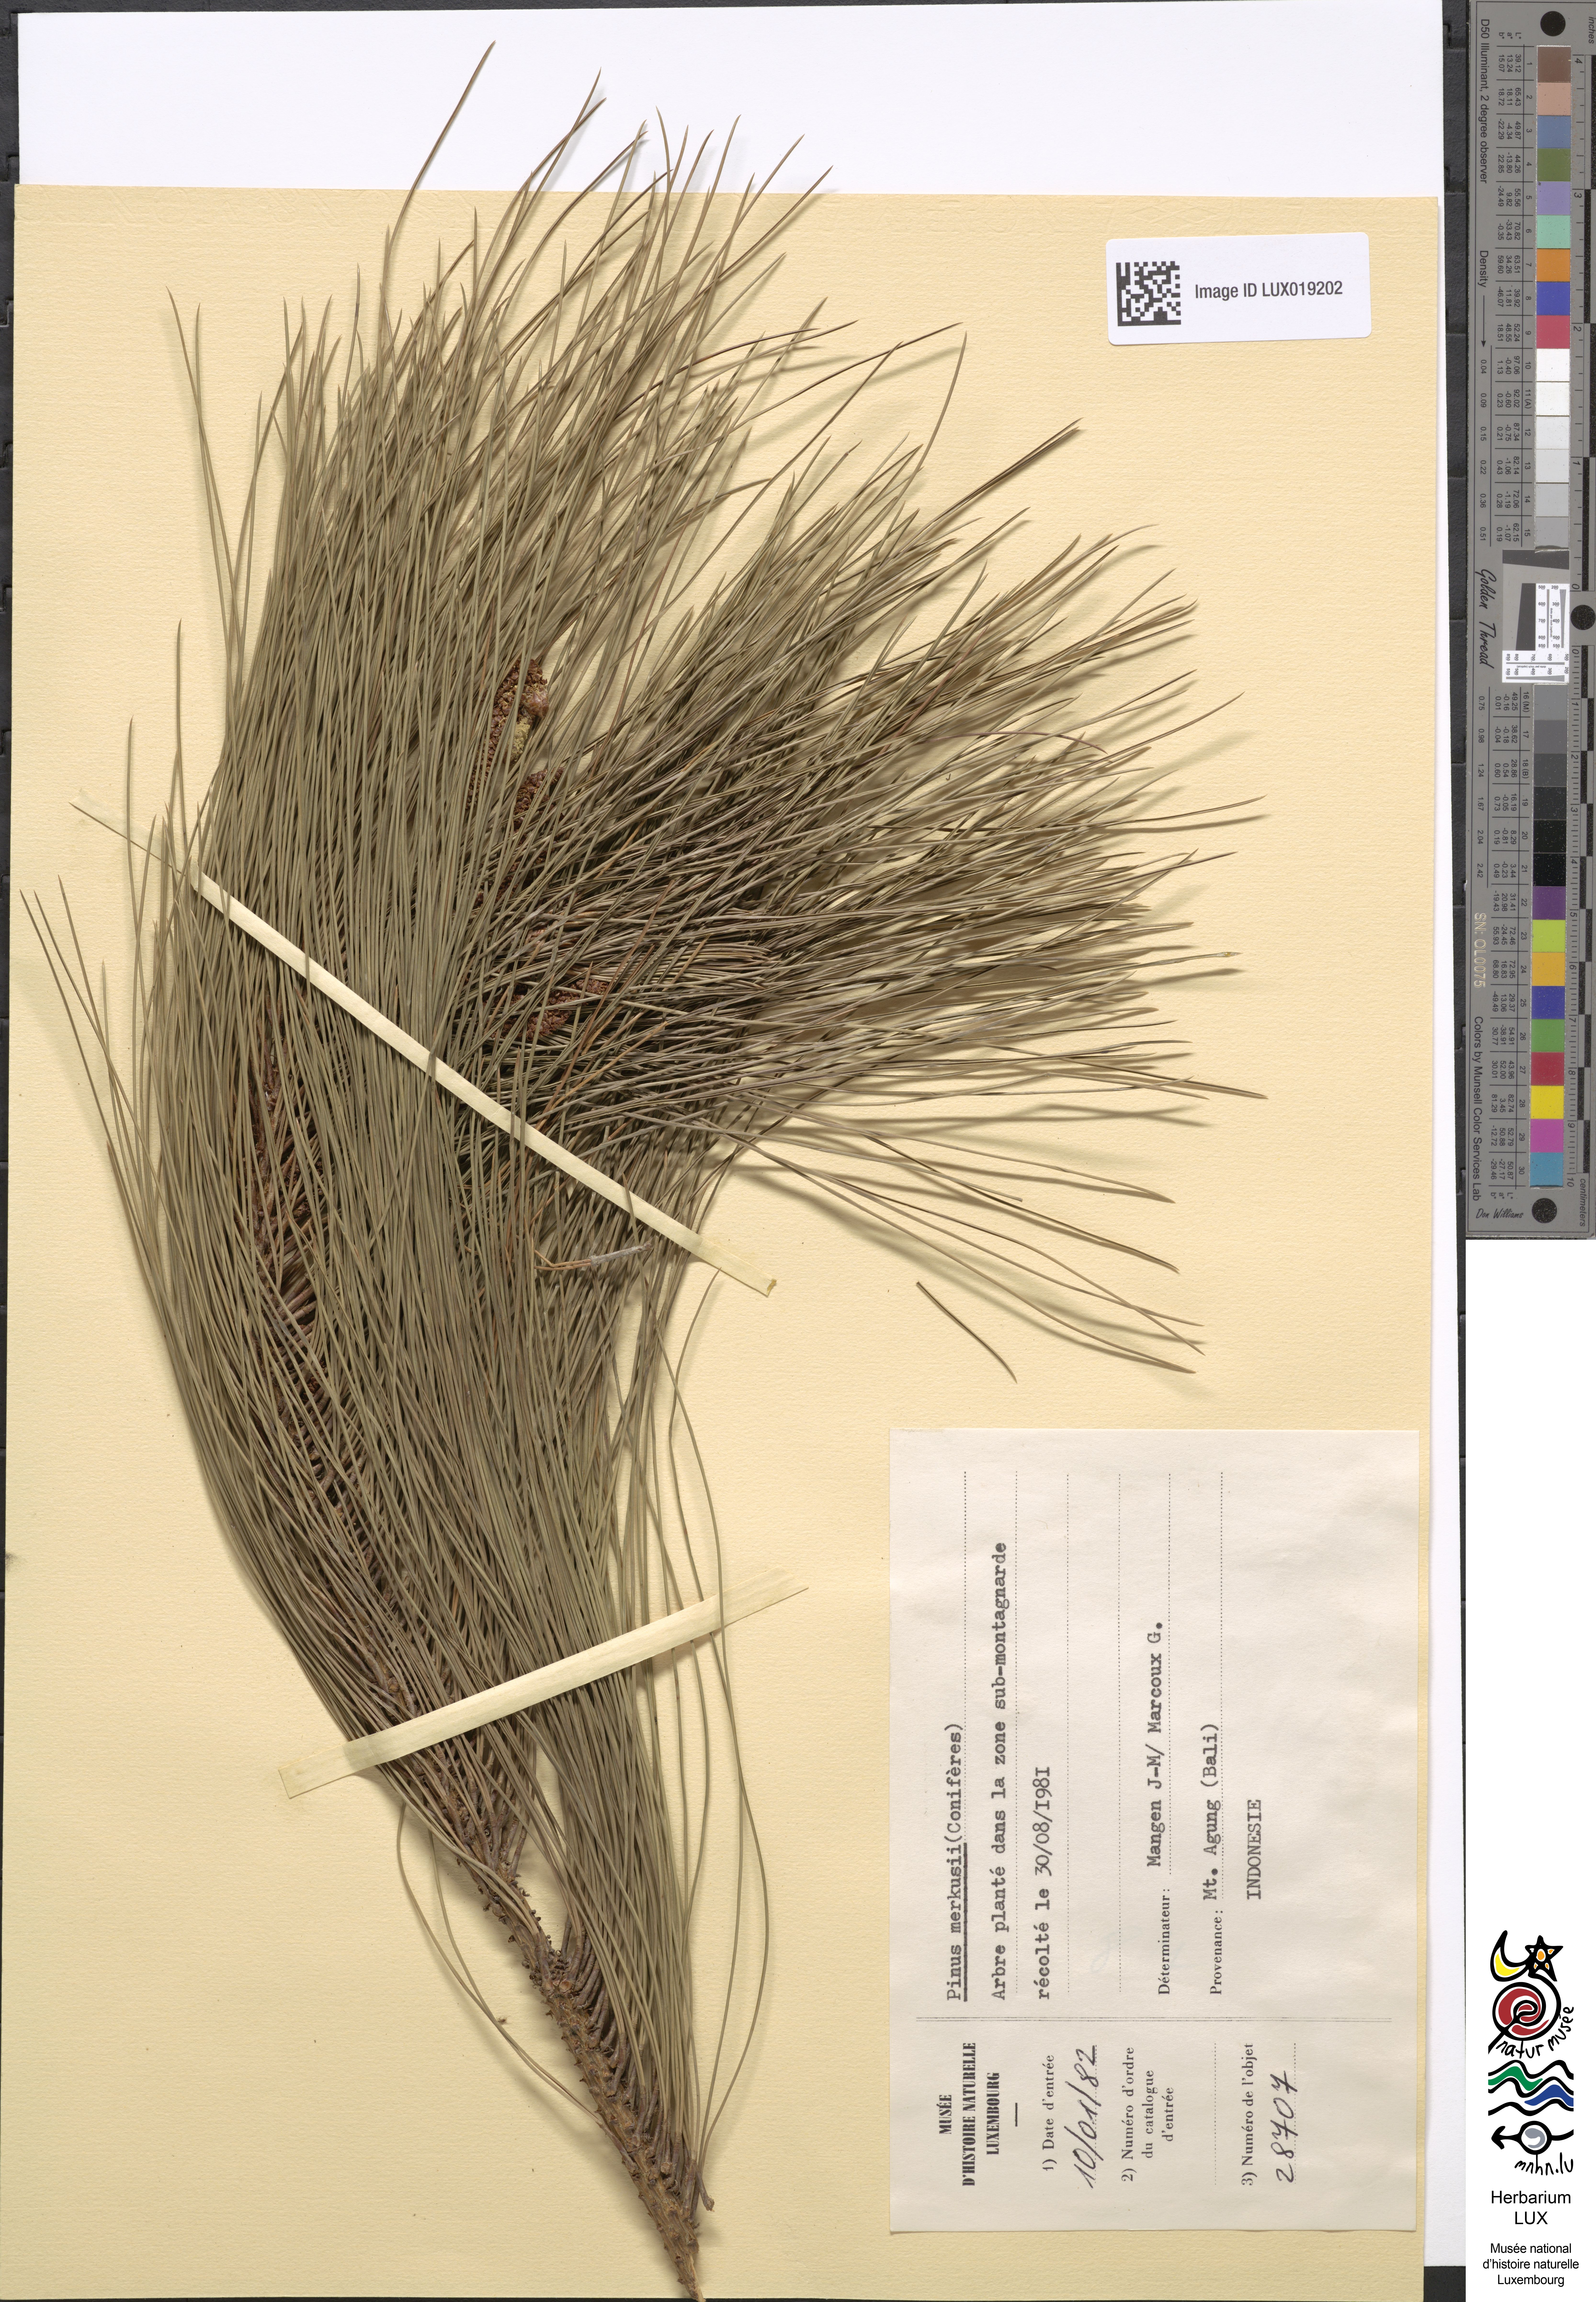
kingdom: Plantae
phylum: Tracheophyta
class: Pinopsida
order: Pinales
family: Pinaceae
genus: Pinus
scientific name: Pinus merkusii
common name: Mindoro pine
